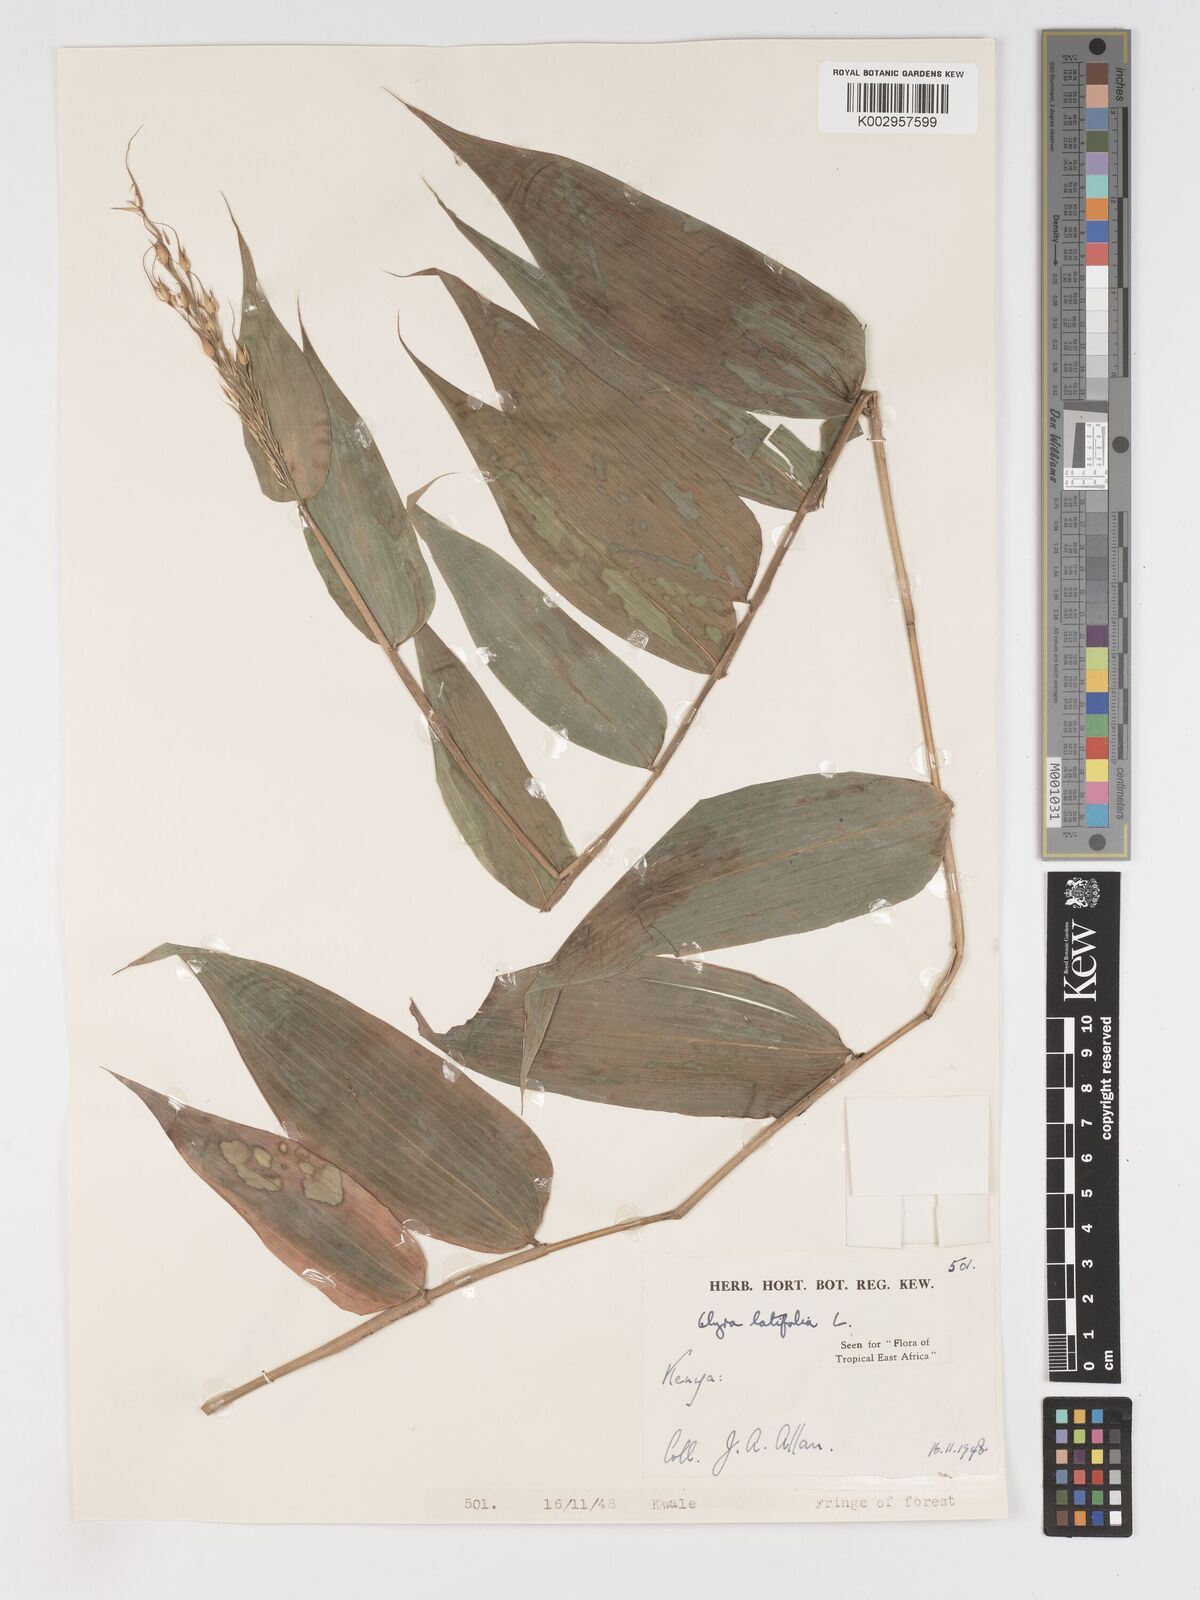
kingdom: Plantae
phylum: Tracheophyta
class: Liliopsida
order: Poales
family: Poaceae
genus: Olyra
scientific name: Olyra latifolia
